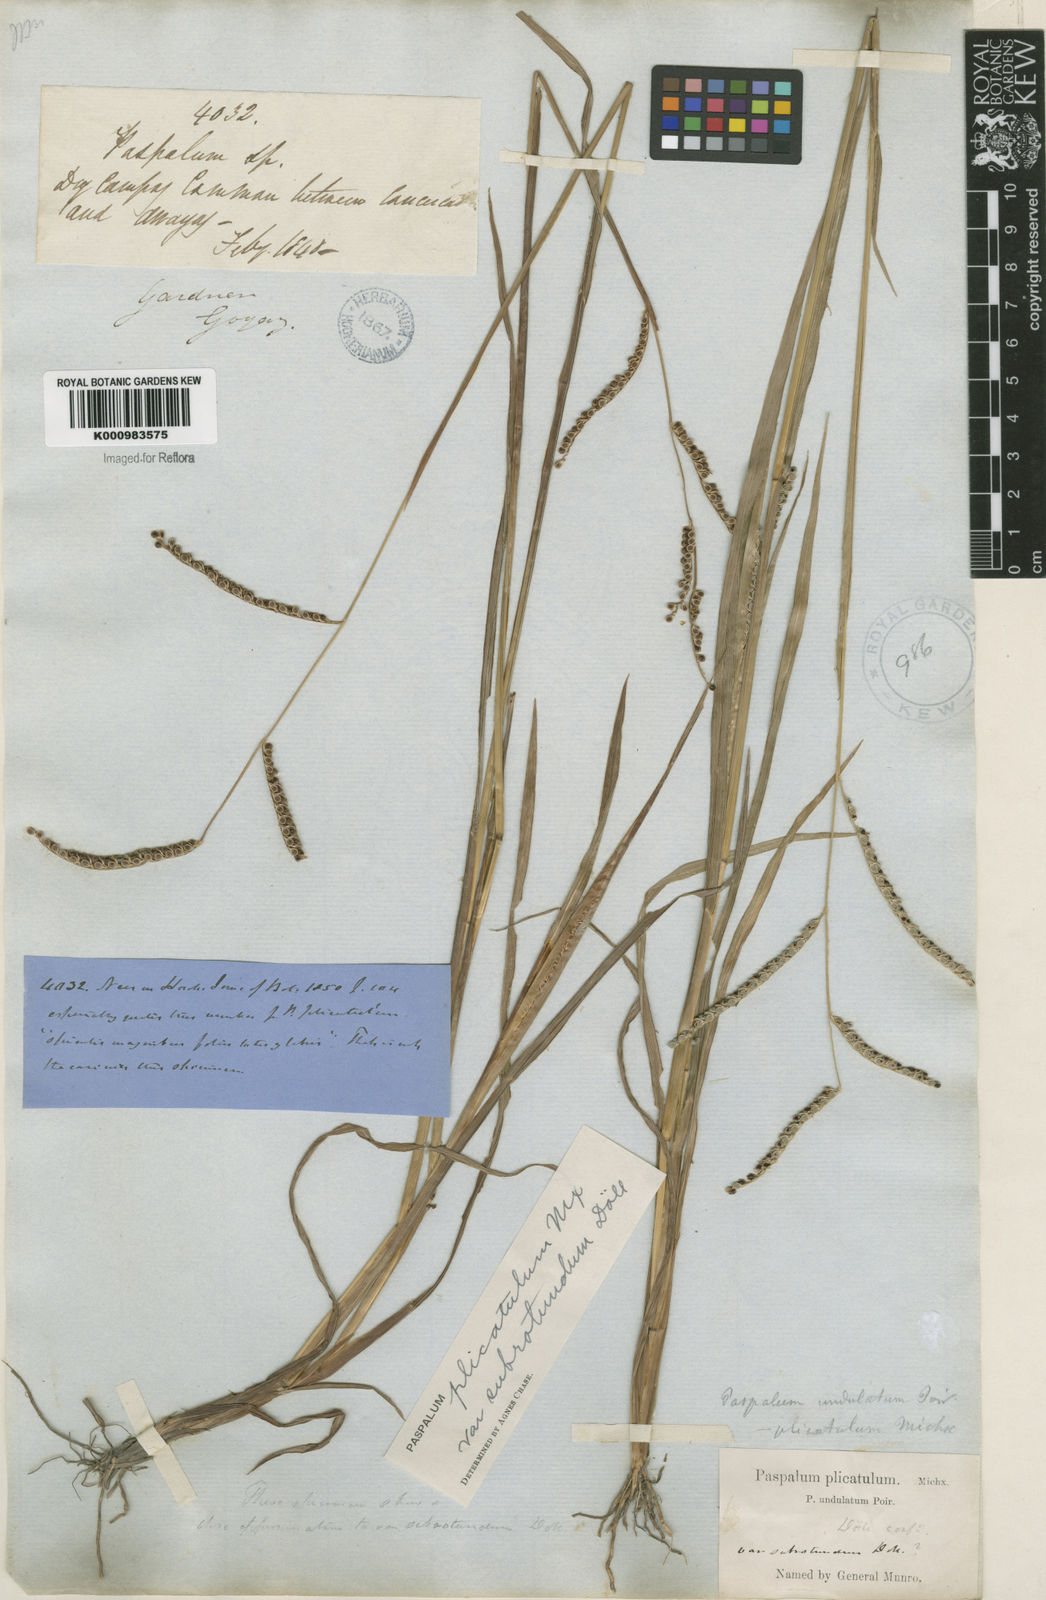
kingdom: Plantae
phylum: Tracheophyta
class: Liliopsida
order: Poales
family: Poaceae
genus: Paspalum
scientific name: Paspalum
